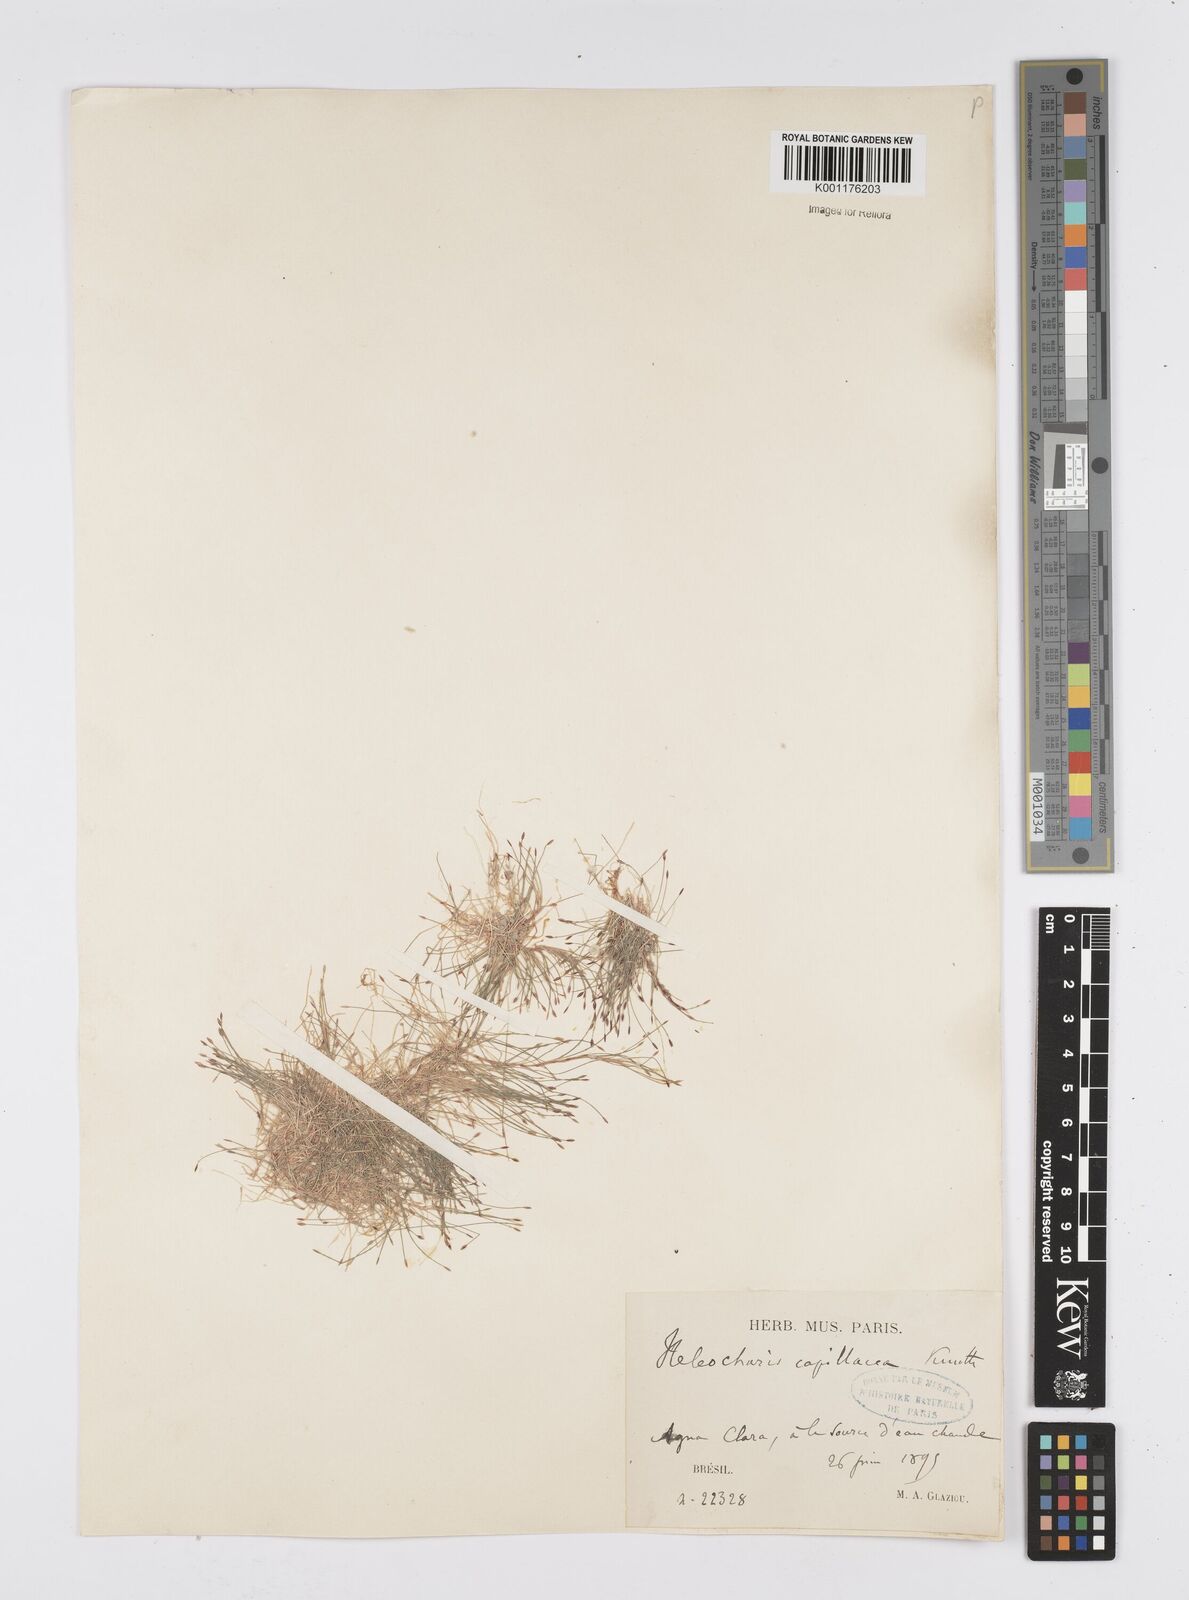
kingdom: Plantae
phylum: Tracheophyta
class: Liliopsida
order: Poales
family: Cyperaceae
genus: Eleocharis
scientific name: Eleocharis capillacea
